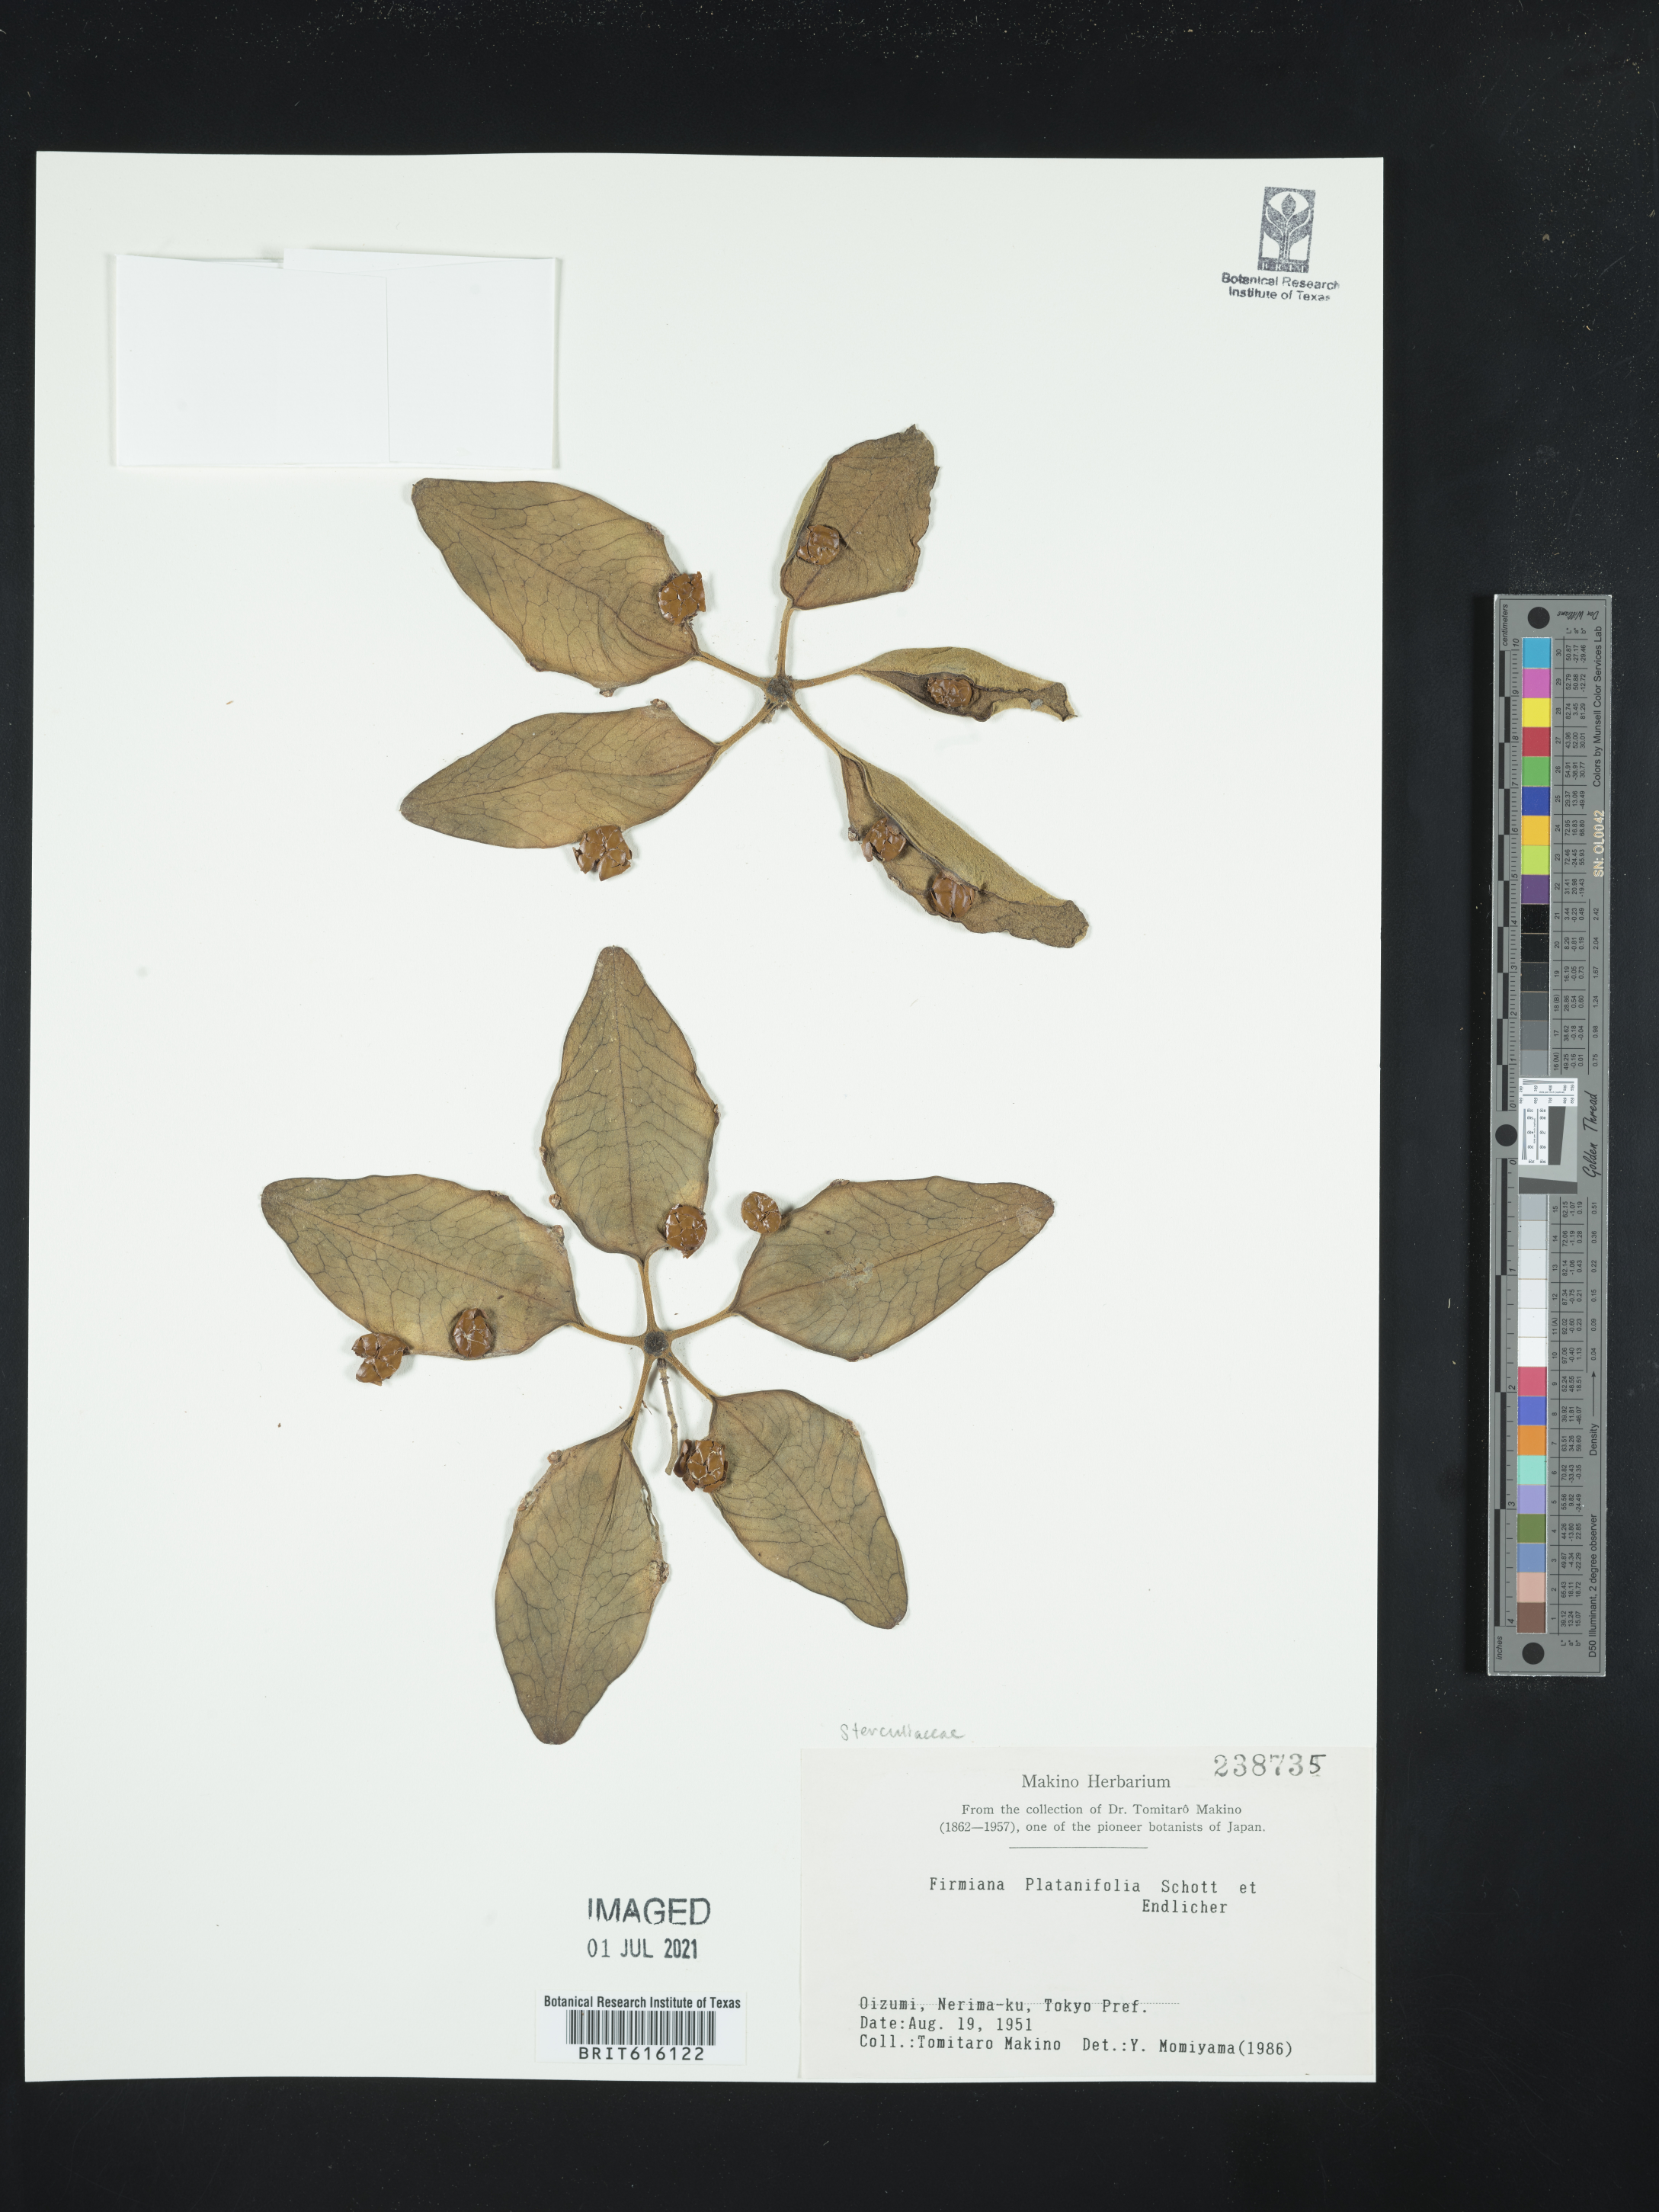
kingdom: Plantae
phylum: Tracheophyta
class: Magnoliopsida
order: Malvales
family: Malvaceae
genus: Firmiana
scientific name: Firmiana simplex
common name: Chinese parasoltree
